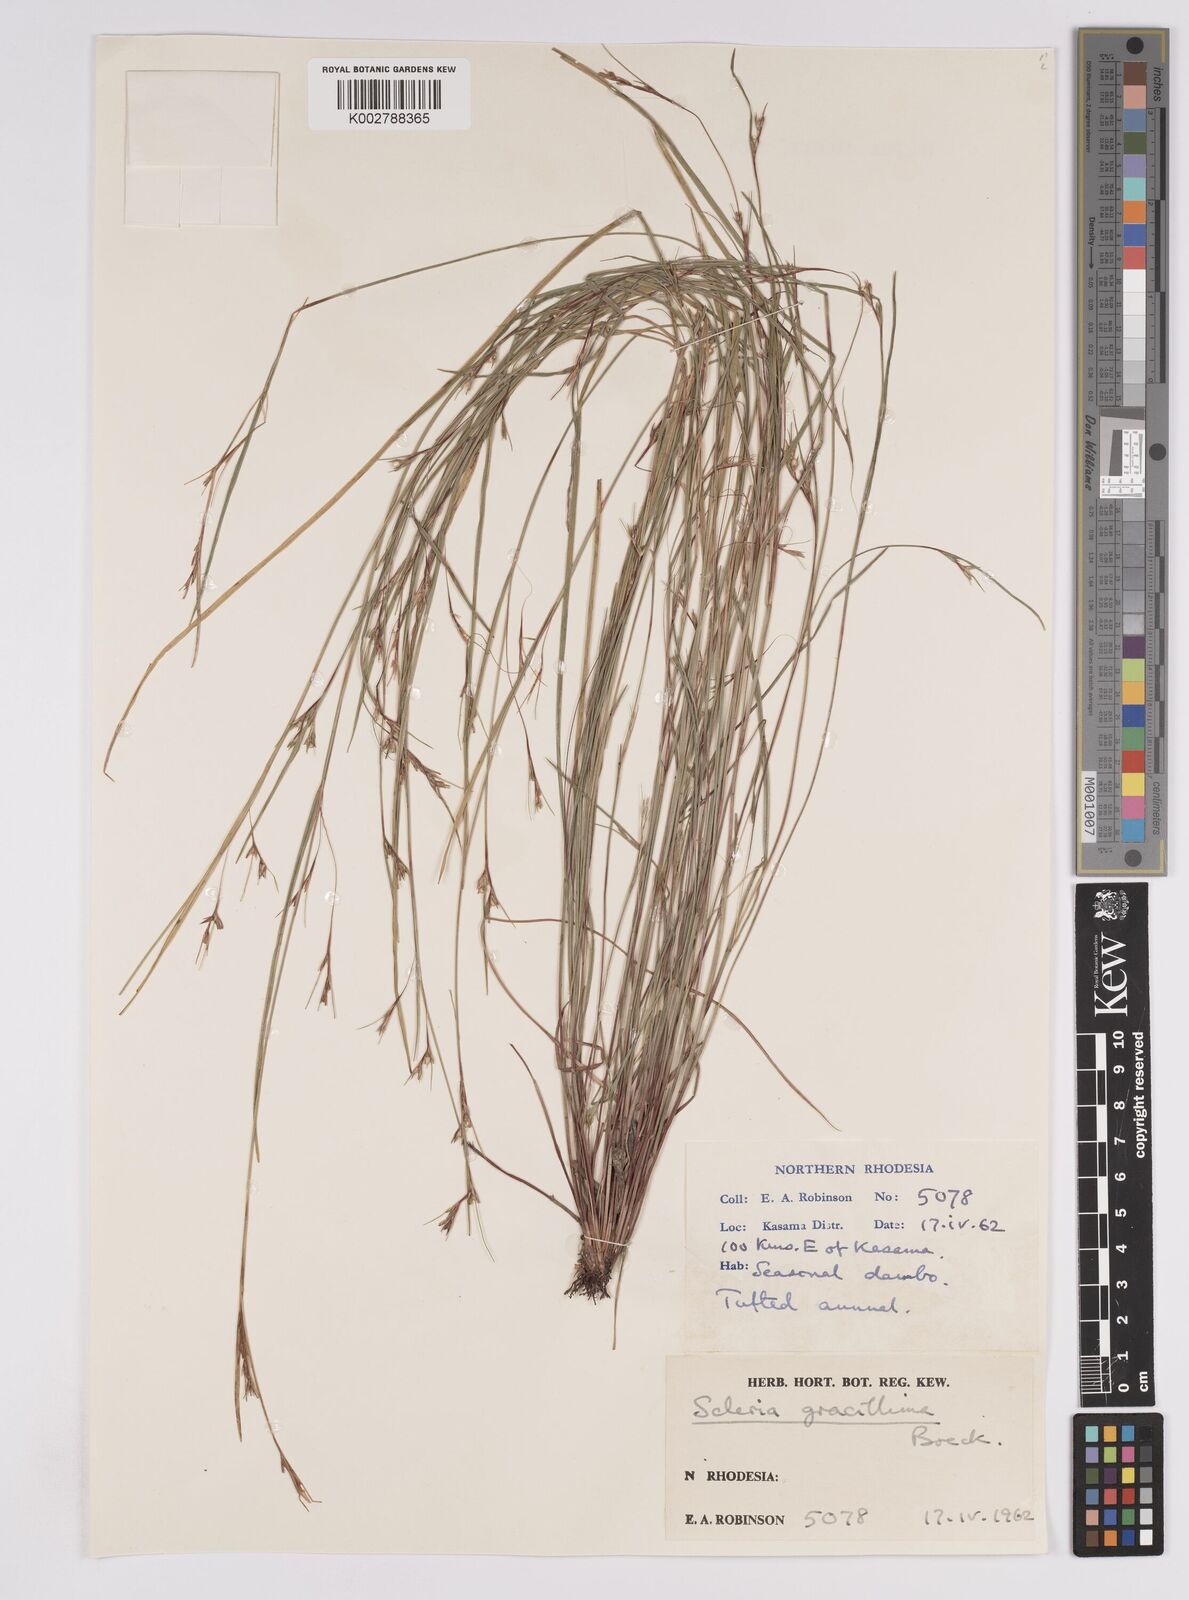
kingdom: Plantae
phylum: Tracheophyta
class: Liliopsida
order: Poales
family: Cyperaceae
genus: Scleria
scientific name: Scleria gracillima
